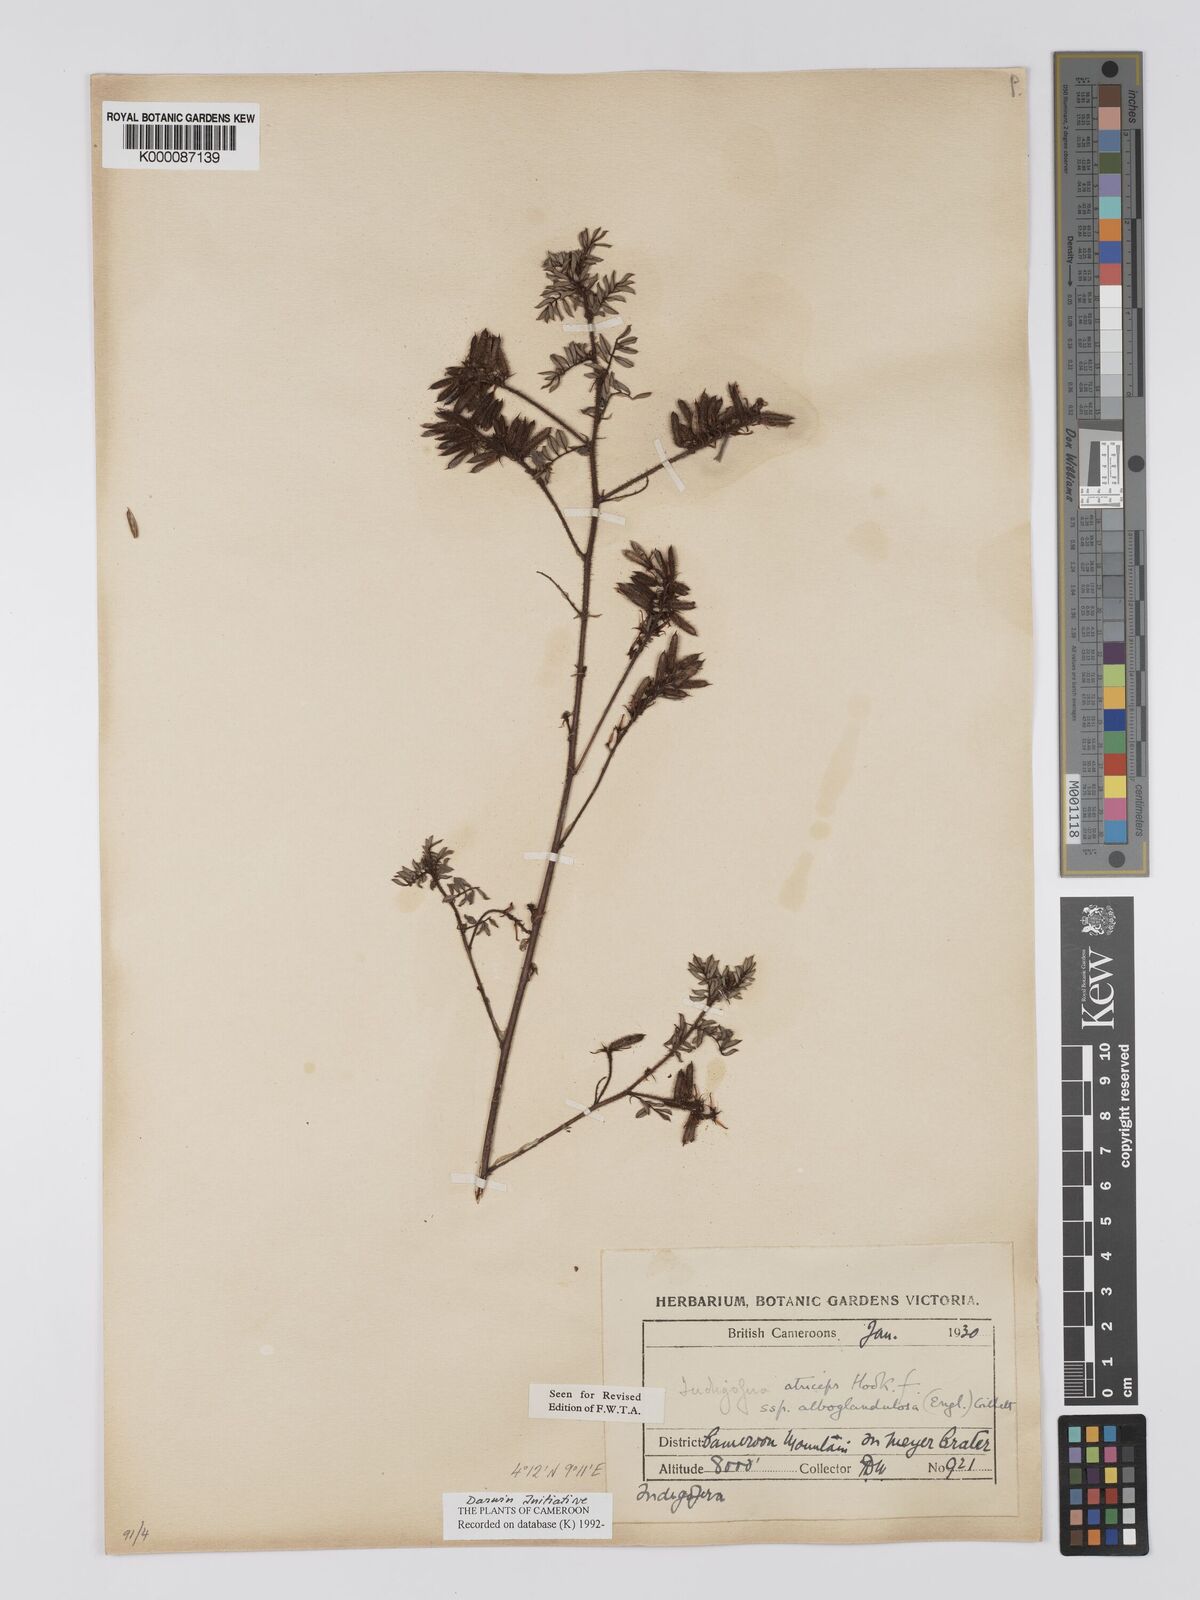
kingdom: Plantae
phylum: Tracheophyta
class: Magnoliopsida
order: Fabales
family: Fabaceae
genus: Indigofera
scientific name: Indigofera atriceps
